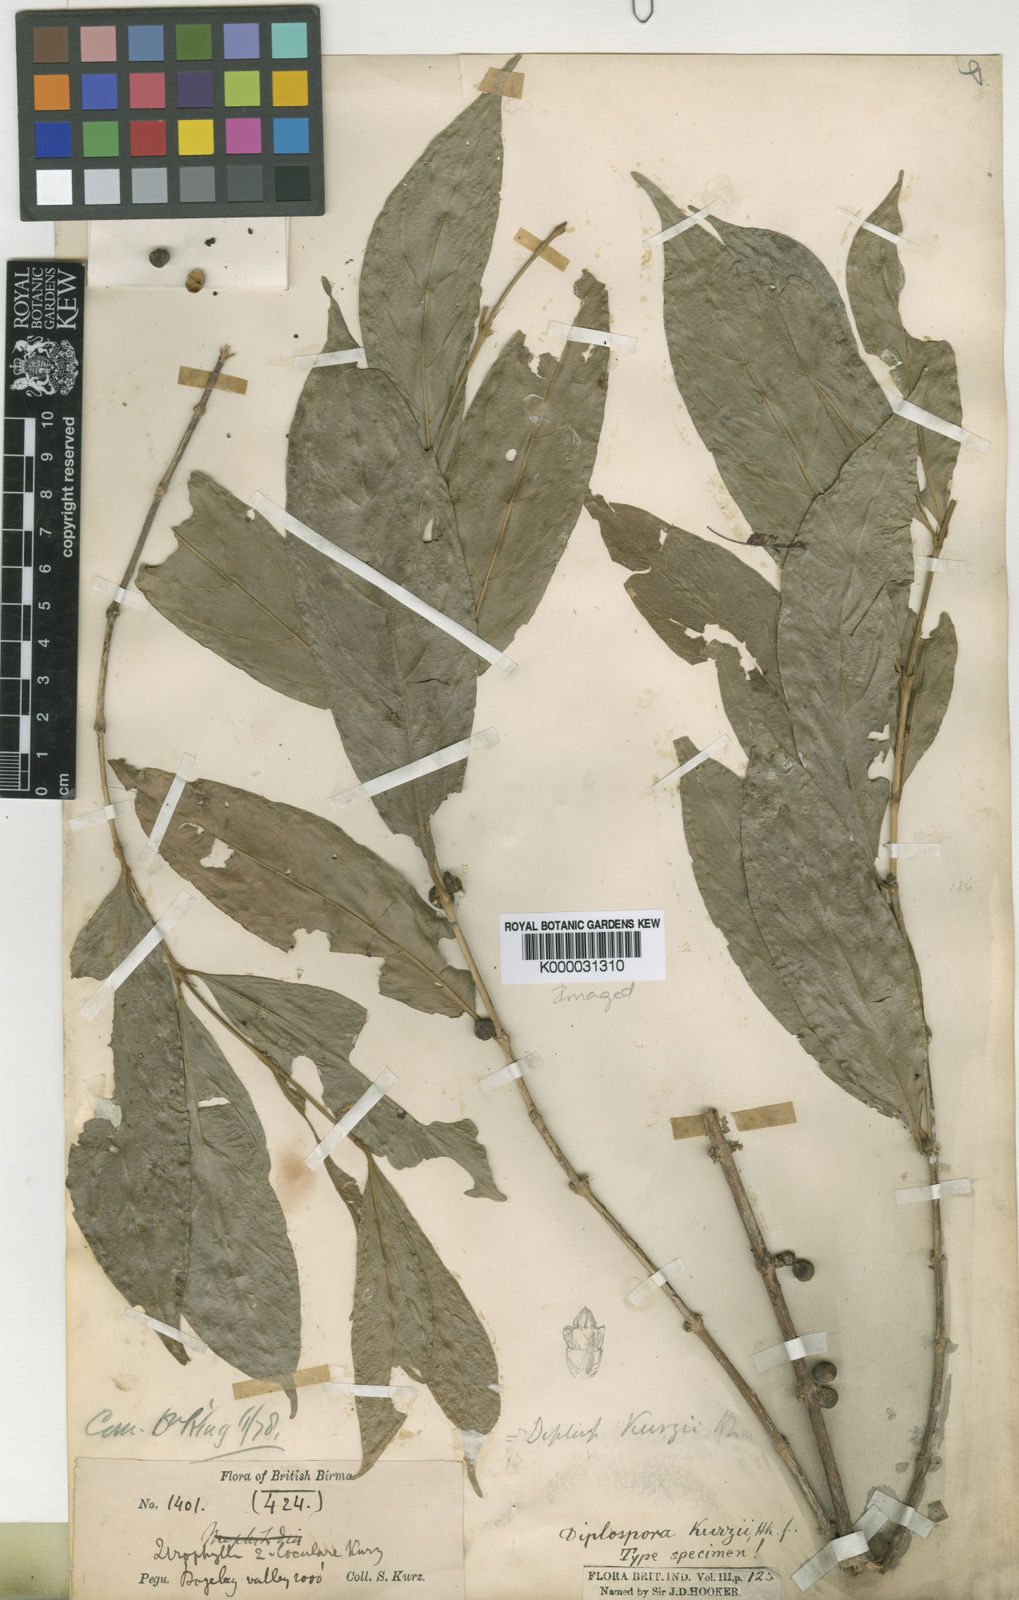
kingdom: Plantae
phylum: Tracheophyta
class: Magnoliopsida
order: Gentianales
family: Rubiaceae
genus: Diplospora
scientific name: Diplospora bilocularis
